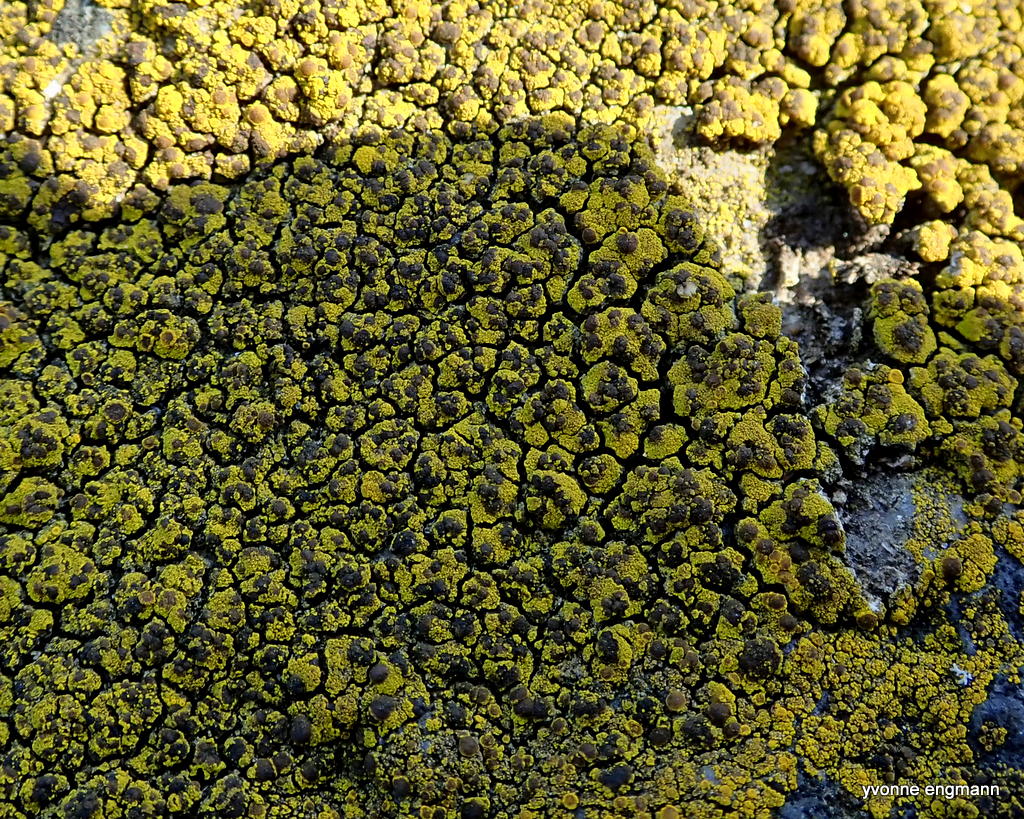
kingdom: Fungi
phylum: Ascomycota
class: Candelariomycetes
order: Candelariales
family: Candelariaceae
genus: Candelariella
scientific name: Candelariella vitellina
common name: almindelig æggeblommelav
